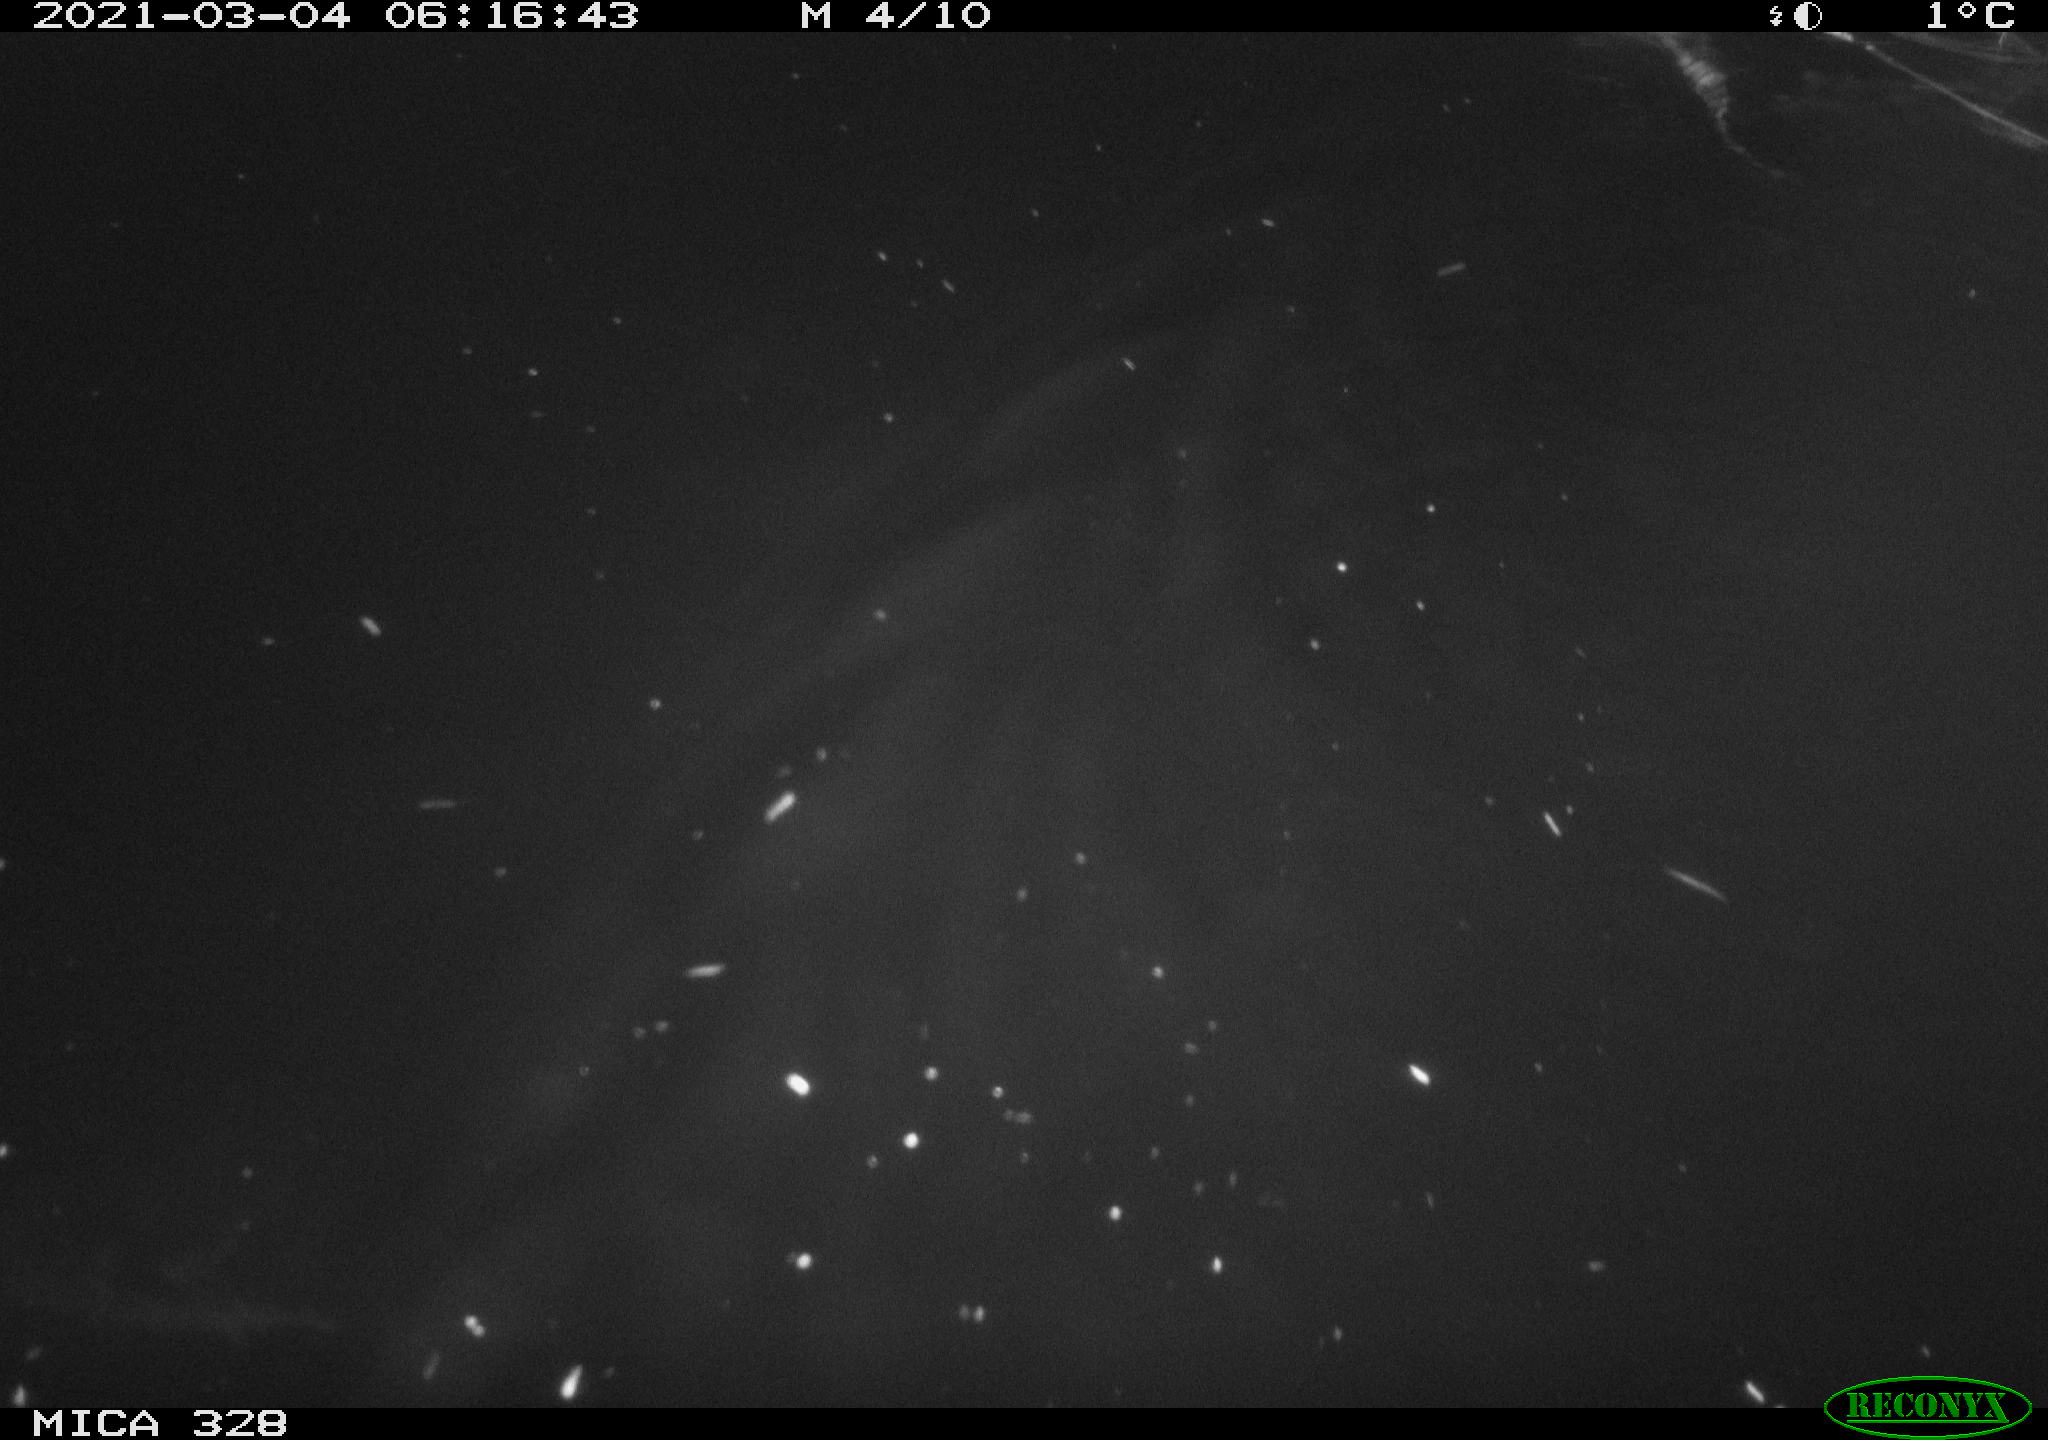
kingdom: Animalia
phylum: Chordata
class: Mammalia
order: Rodentia
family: Cricetidae
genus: Ondatra
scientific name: Ondatra zibethicus
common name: Muskrat
